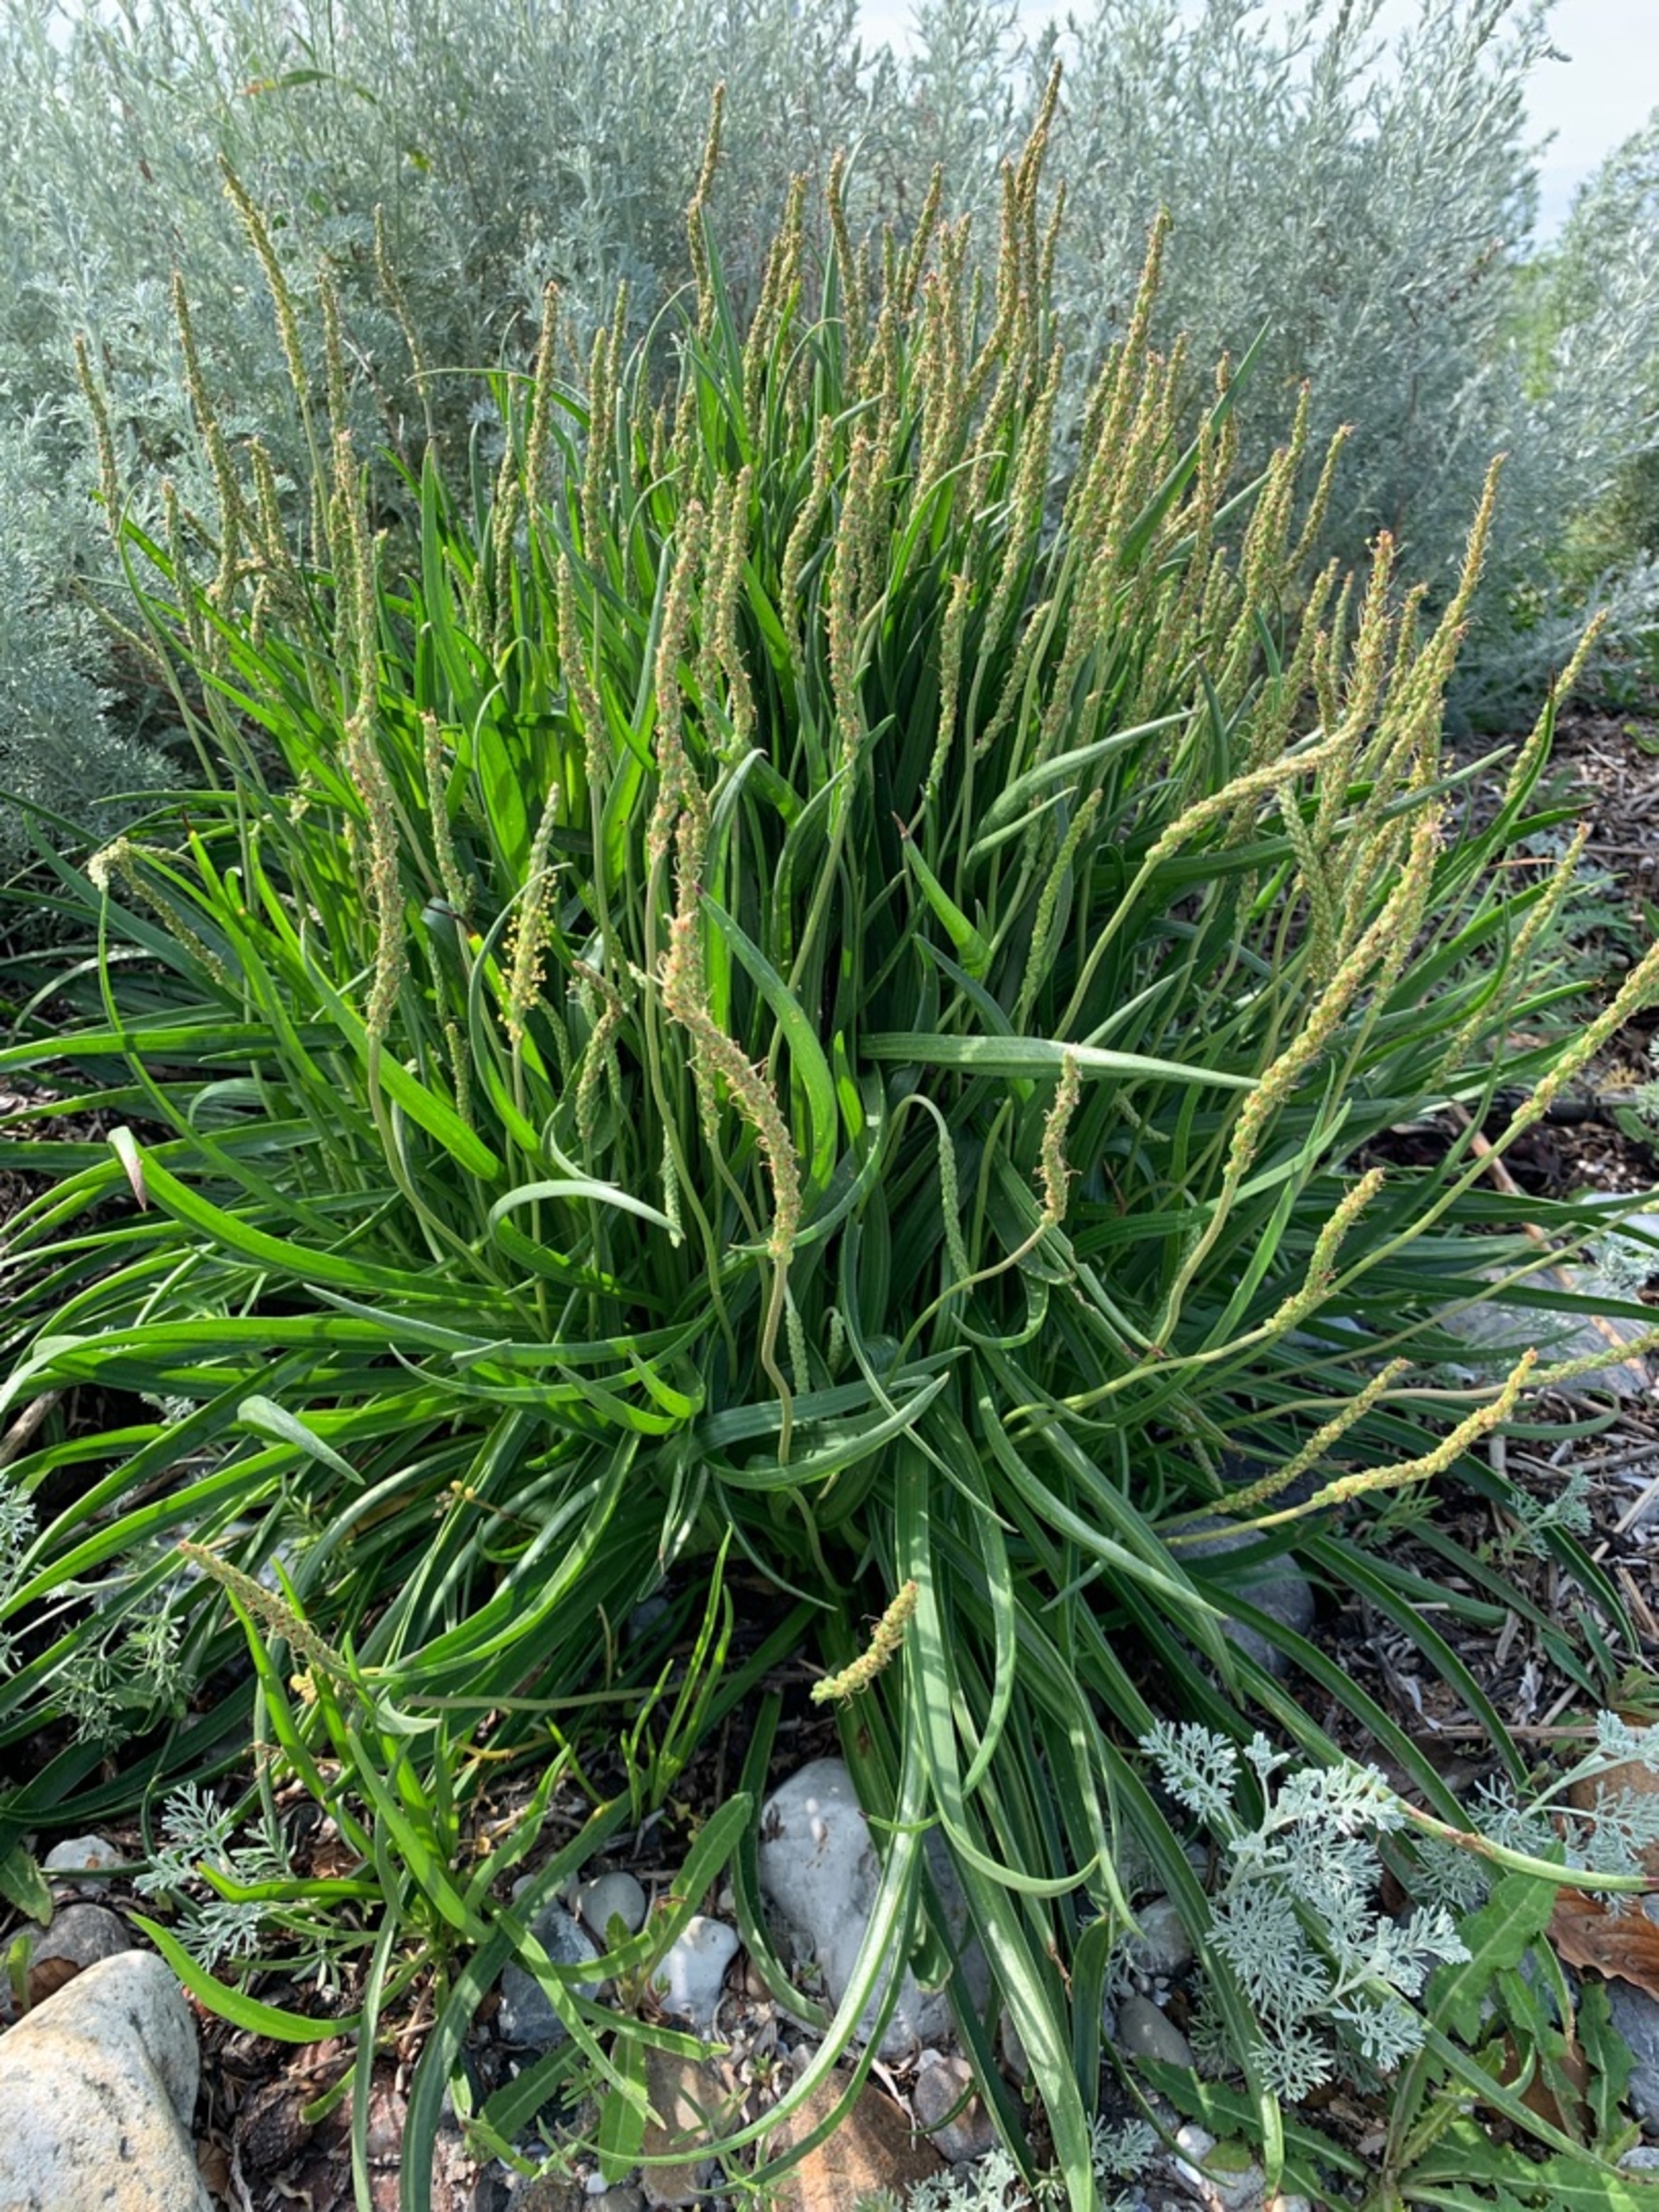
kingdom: Plantae
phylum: Tracheophyta
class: Magnoliopsida
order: Lamiales
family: Plantaginaceae
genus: Plantago
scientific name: Plantago maritima
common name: Strand-vejbred
